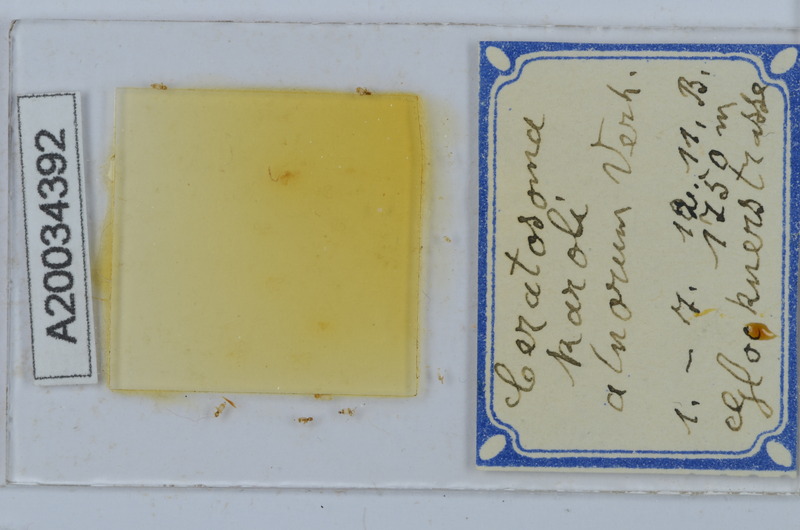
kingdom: Animalia
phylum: Arthropoda
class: Diplopoda
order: Chordeumatida
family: Craspedosomatidae
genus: Ochogona
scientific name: Ochogona caroli
